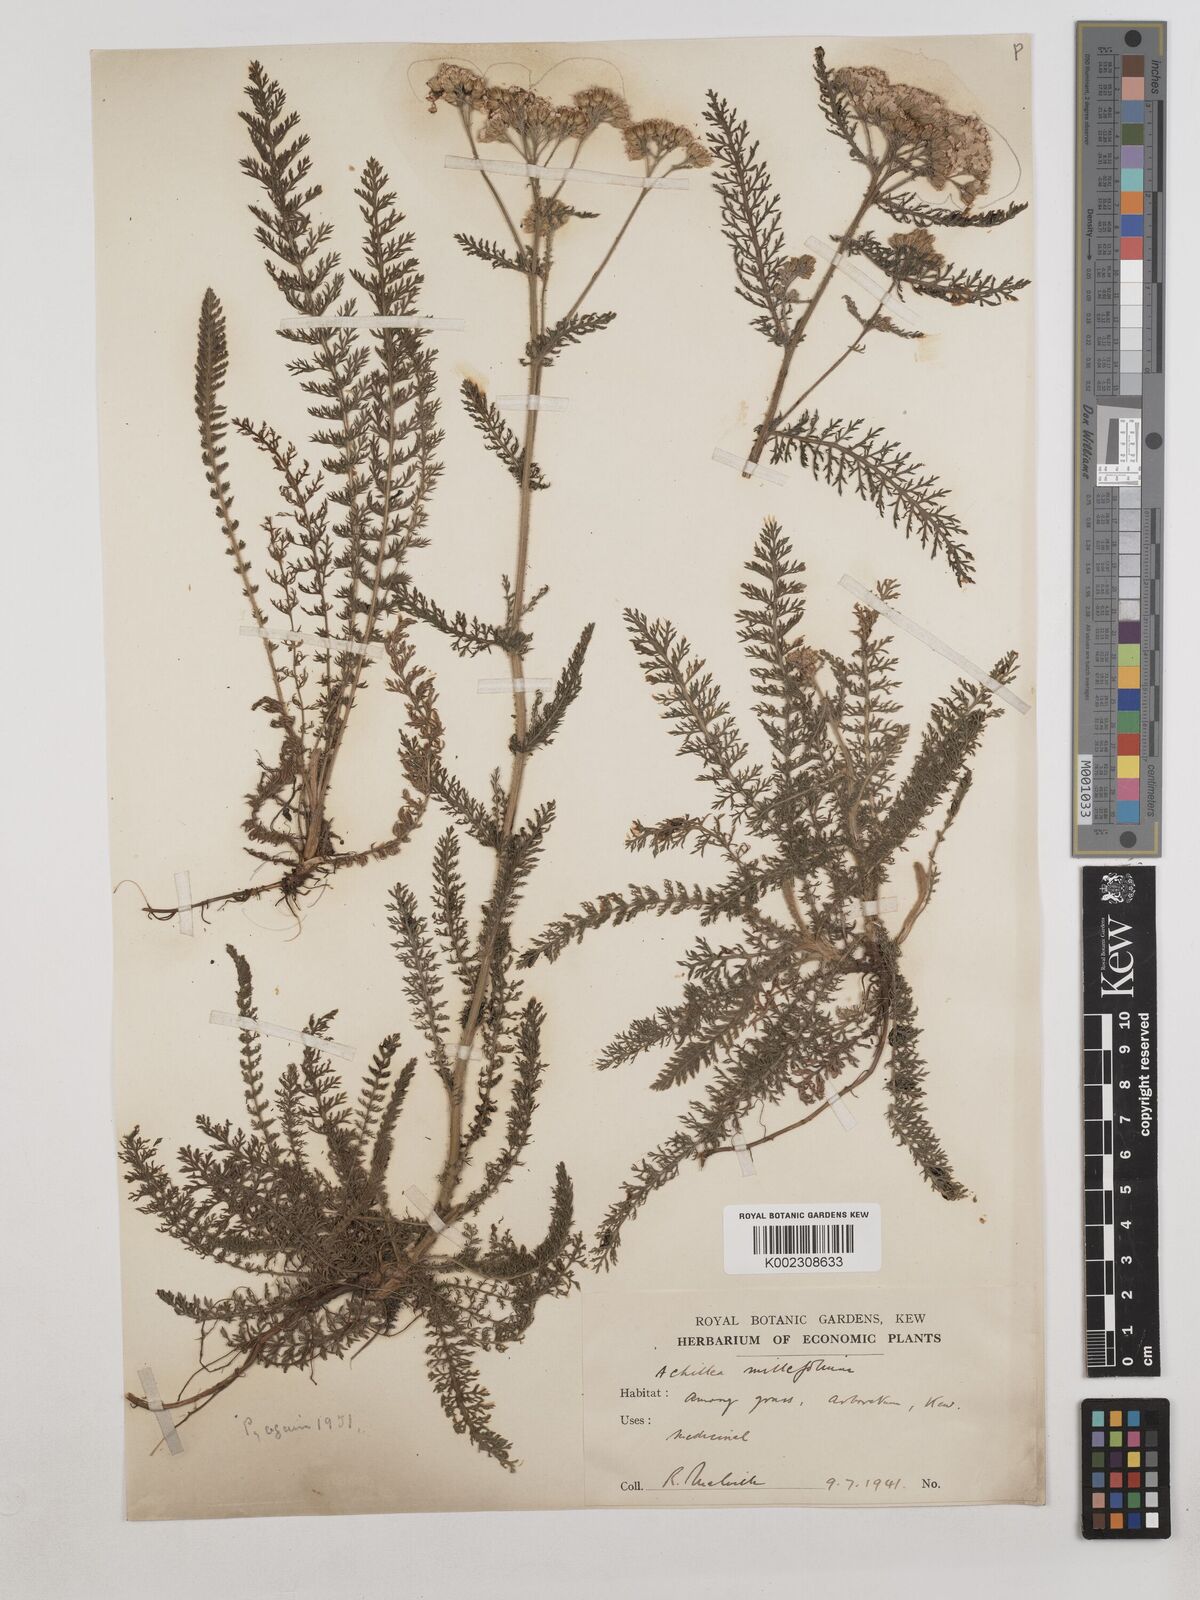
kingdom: Plantae
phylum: Tracheophyta
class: Magnoliopsida
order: Asterales
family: Asteraceae
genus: Achillea
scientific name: Achillea millefolium
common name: Yarrow
